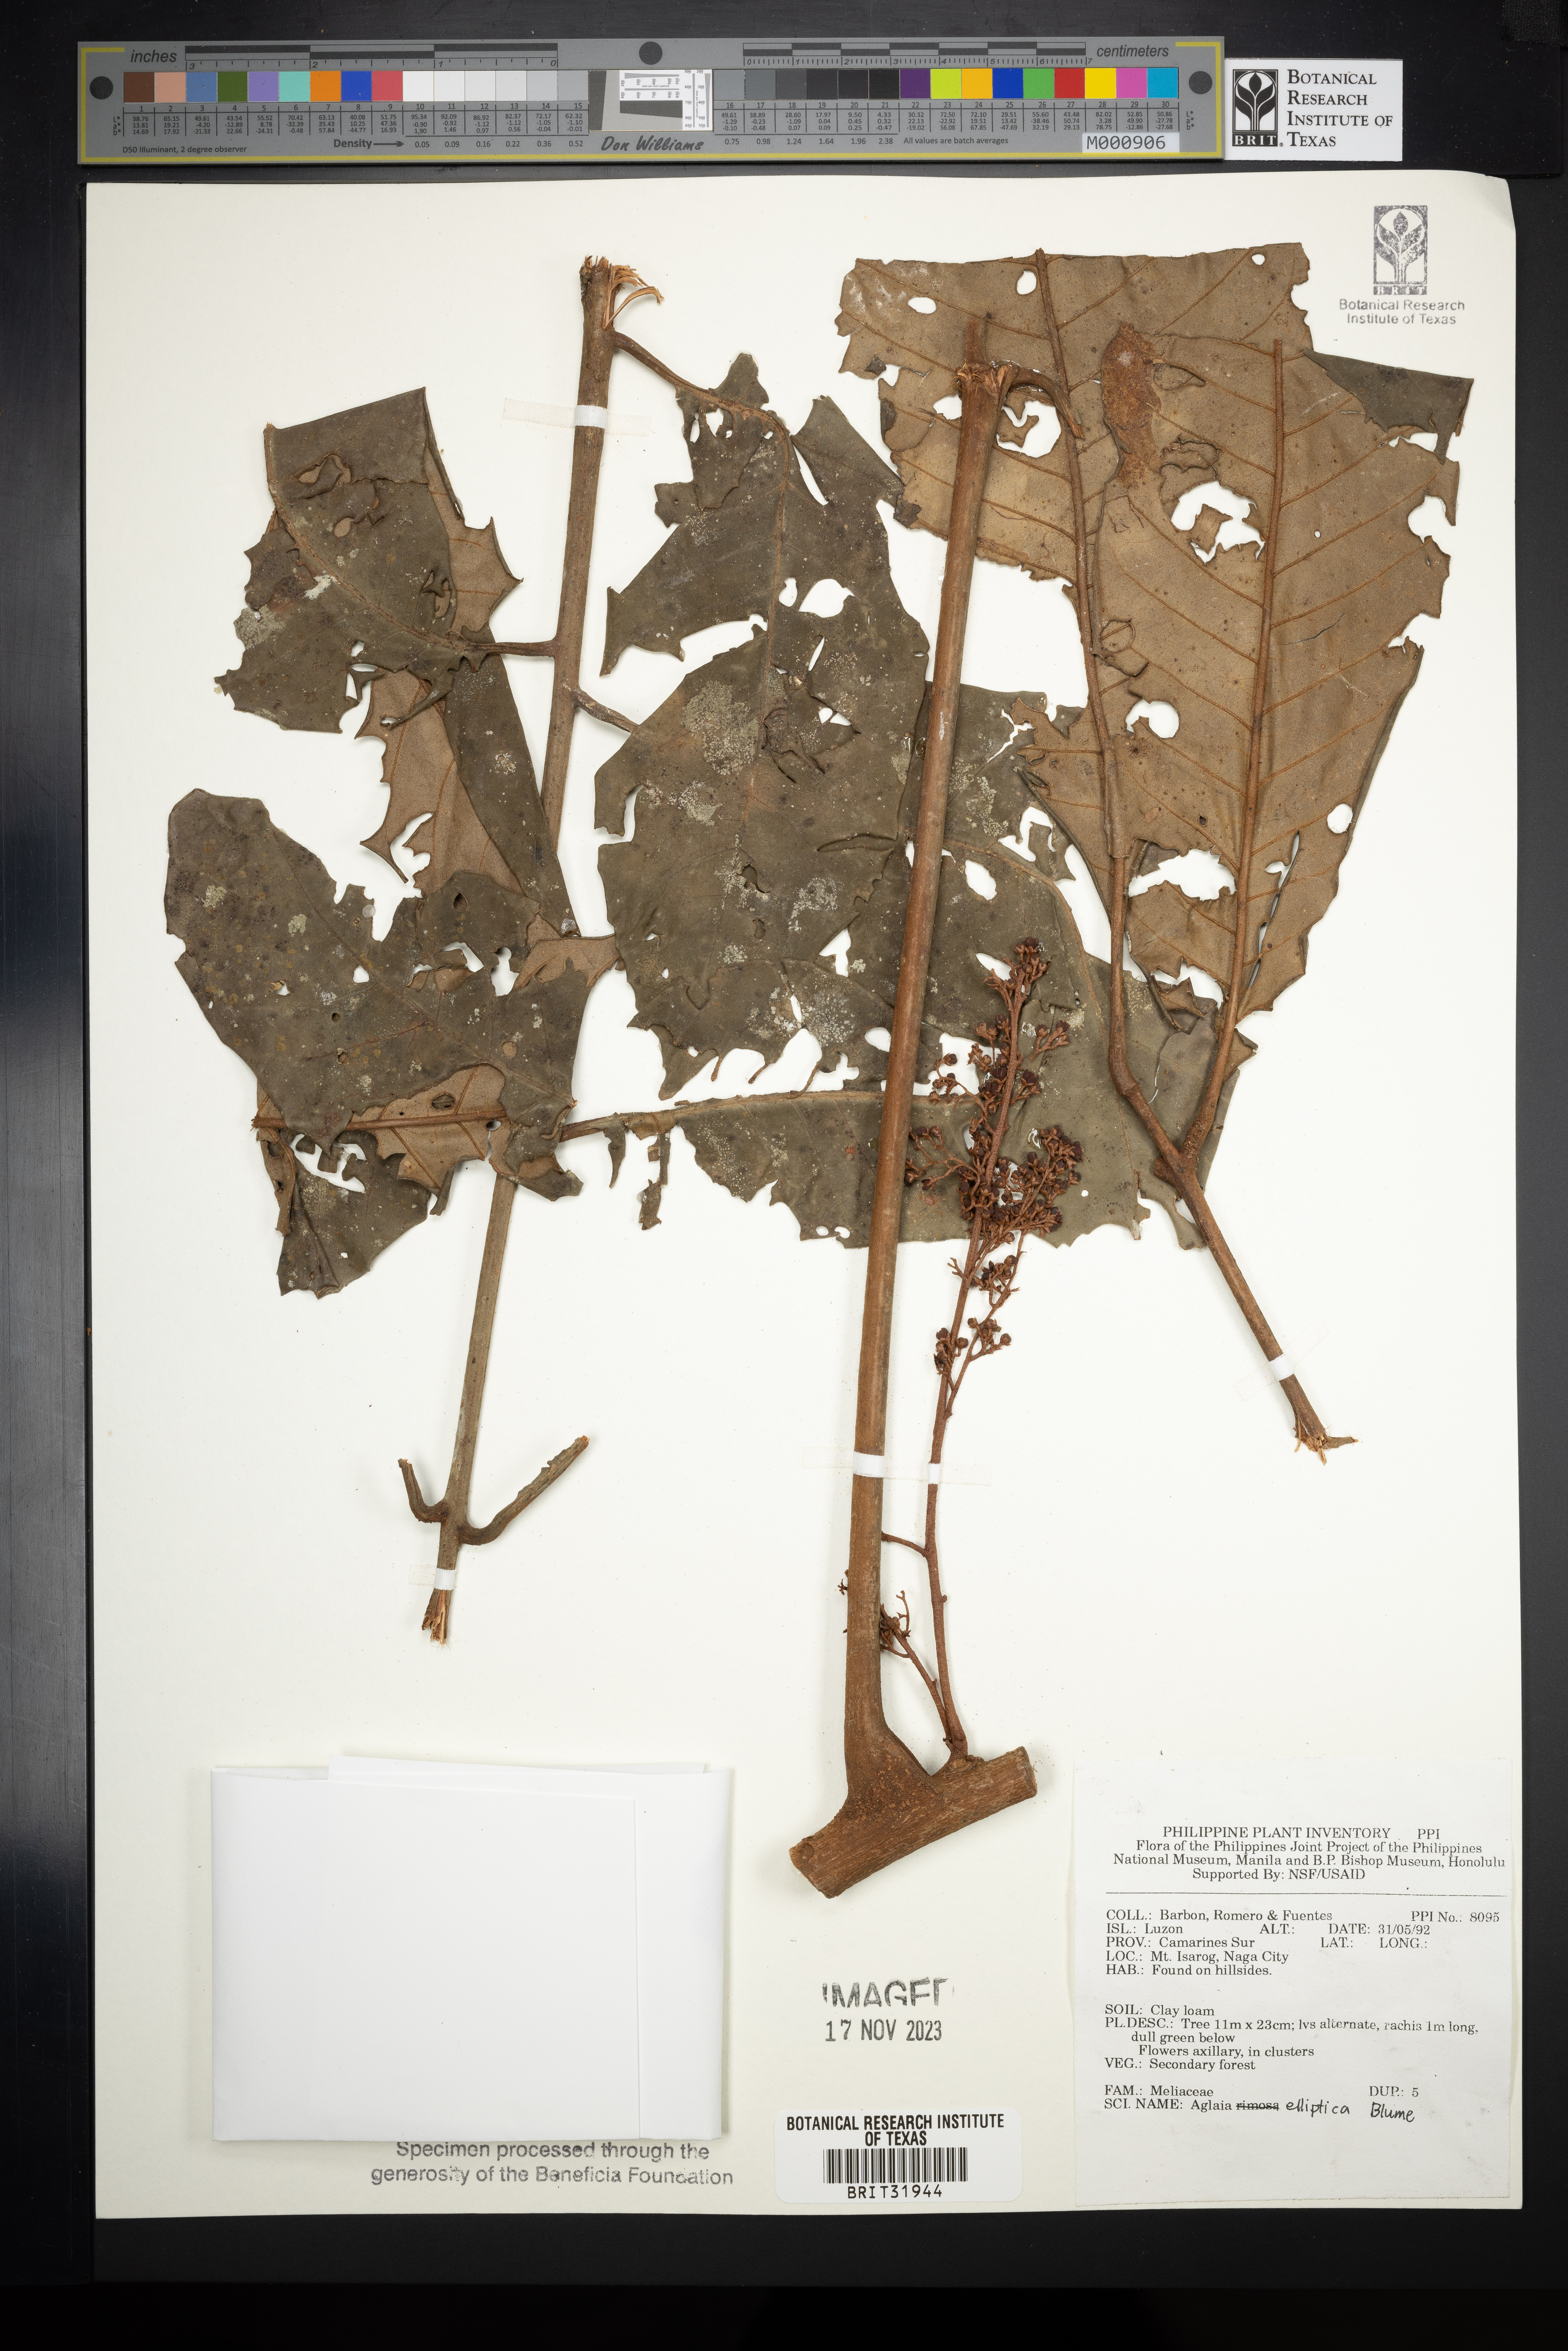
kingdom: Plantae
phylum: Tracheophyta
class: Magnoliopsida
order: Sapindales
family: Meliaceae
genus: Aglaia
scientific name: Aglaia elliptica
